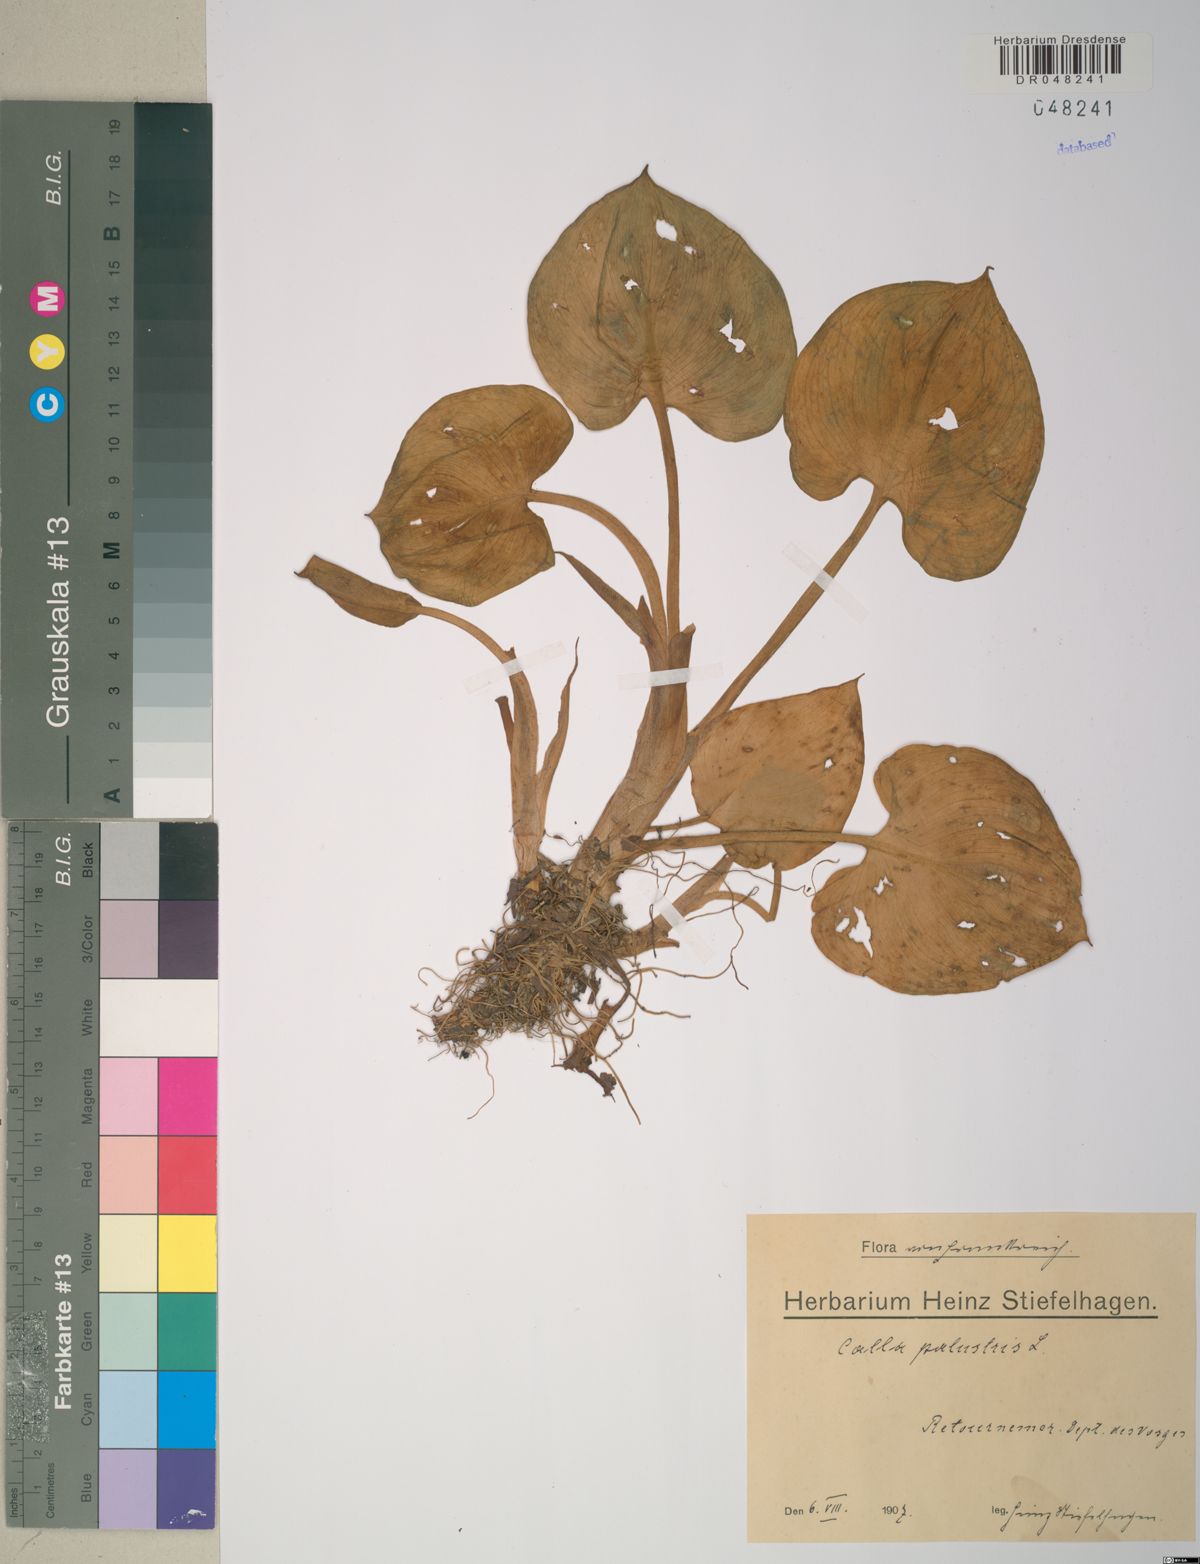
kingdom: Plantae
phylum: Tracheophyta
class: Liliopsida
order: Alismatales
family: Araceae
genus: Calla
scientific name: Calla palustris
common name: Bog arum
